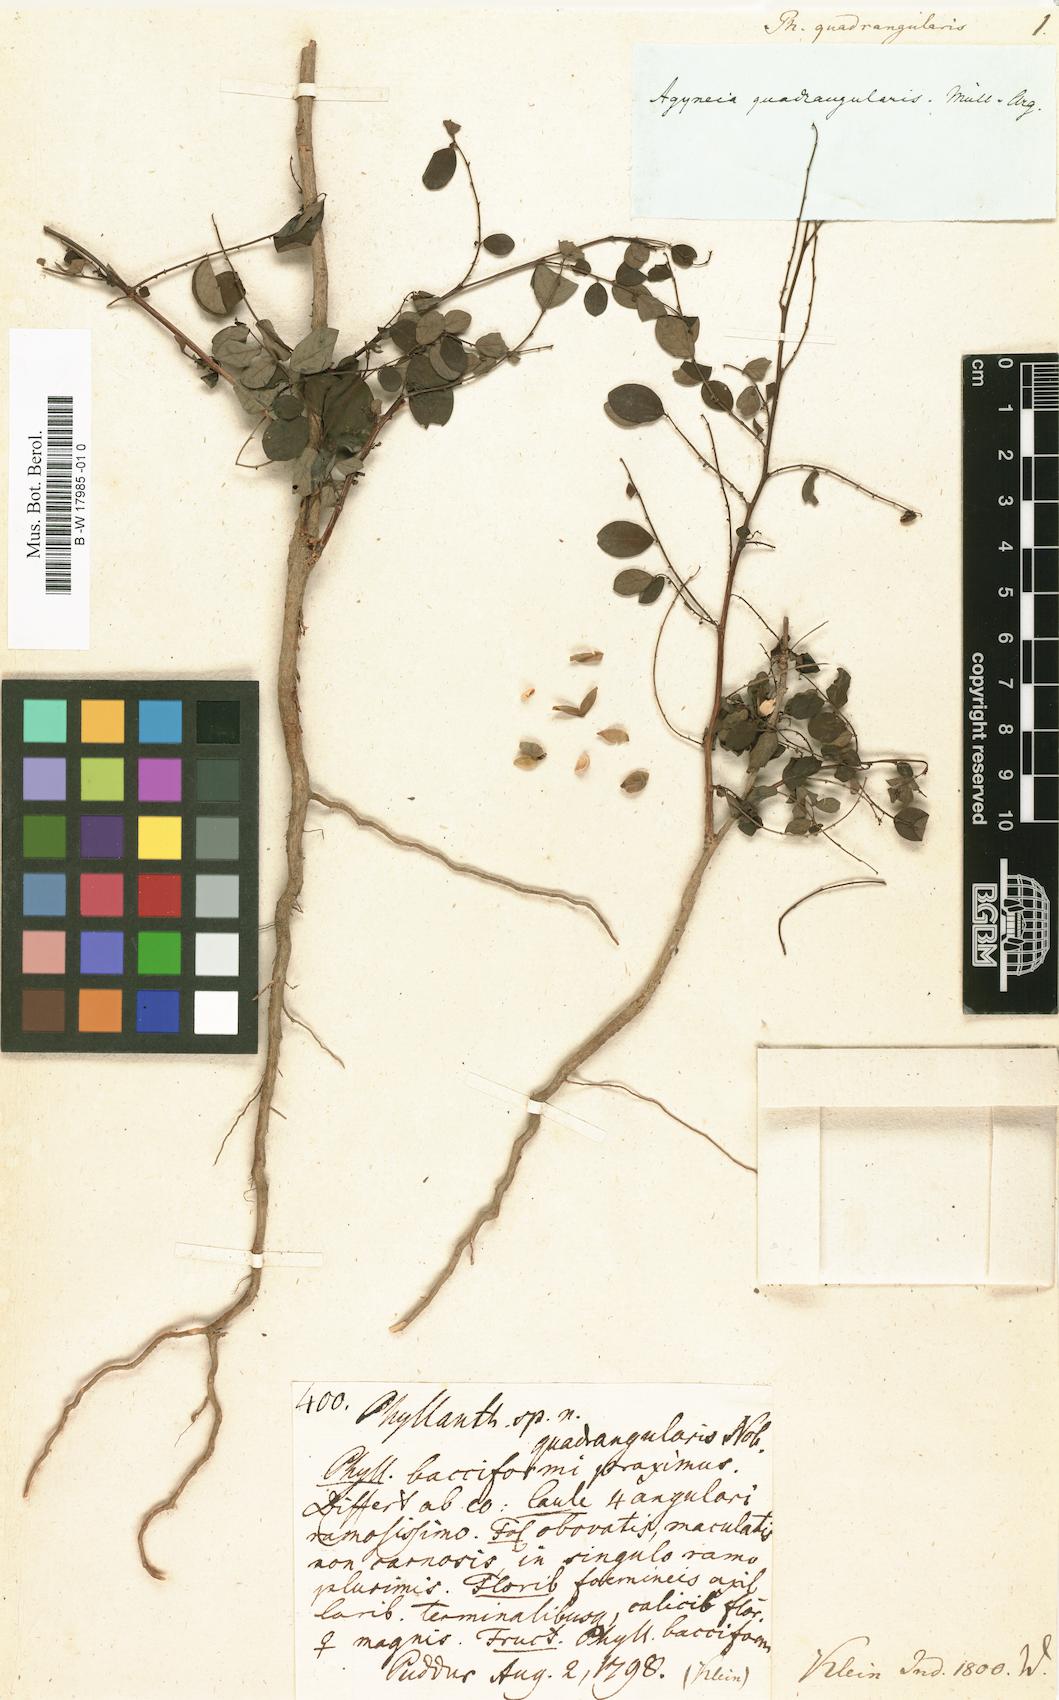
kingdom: Plantae
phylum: Tracheophyta
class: Magnoliopsida
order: Malpighiales
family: Phyllanthaceae
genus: Breynia
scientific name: Breynia quadrangularis
